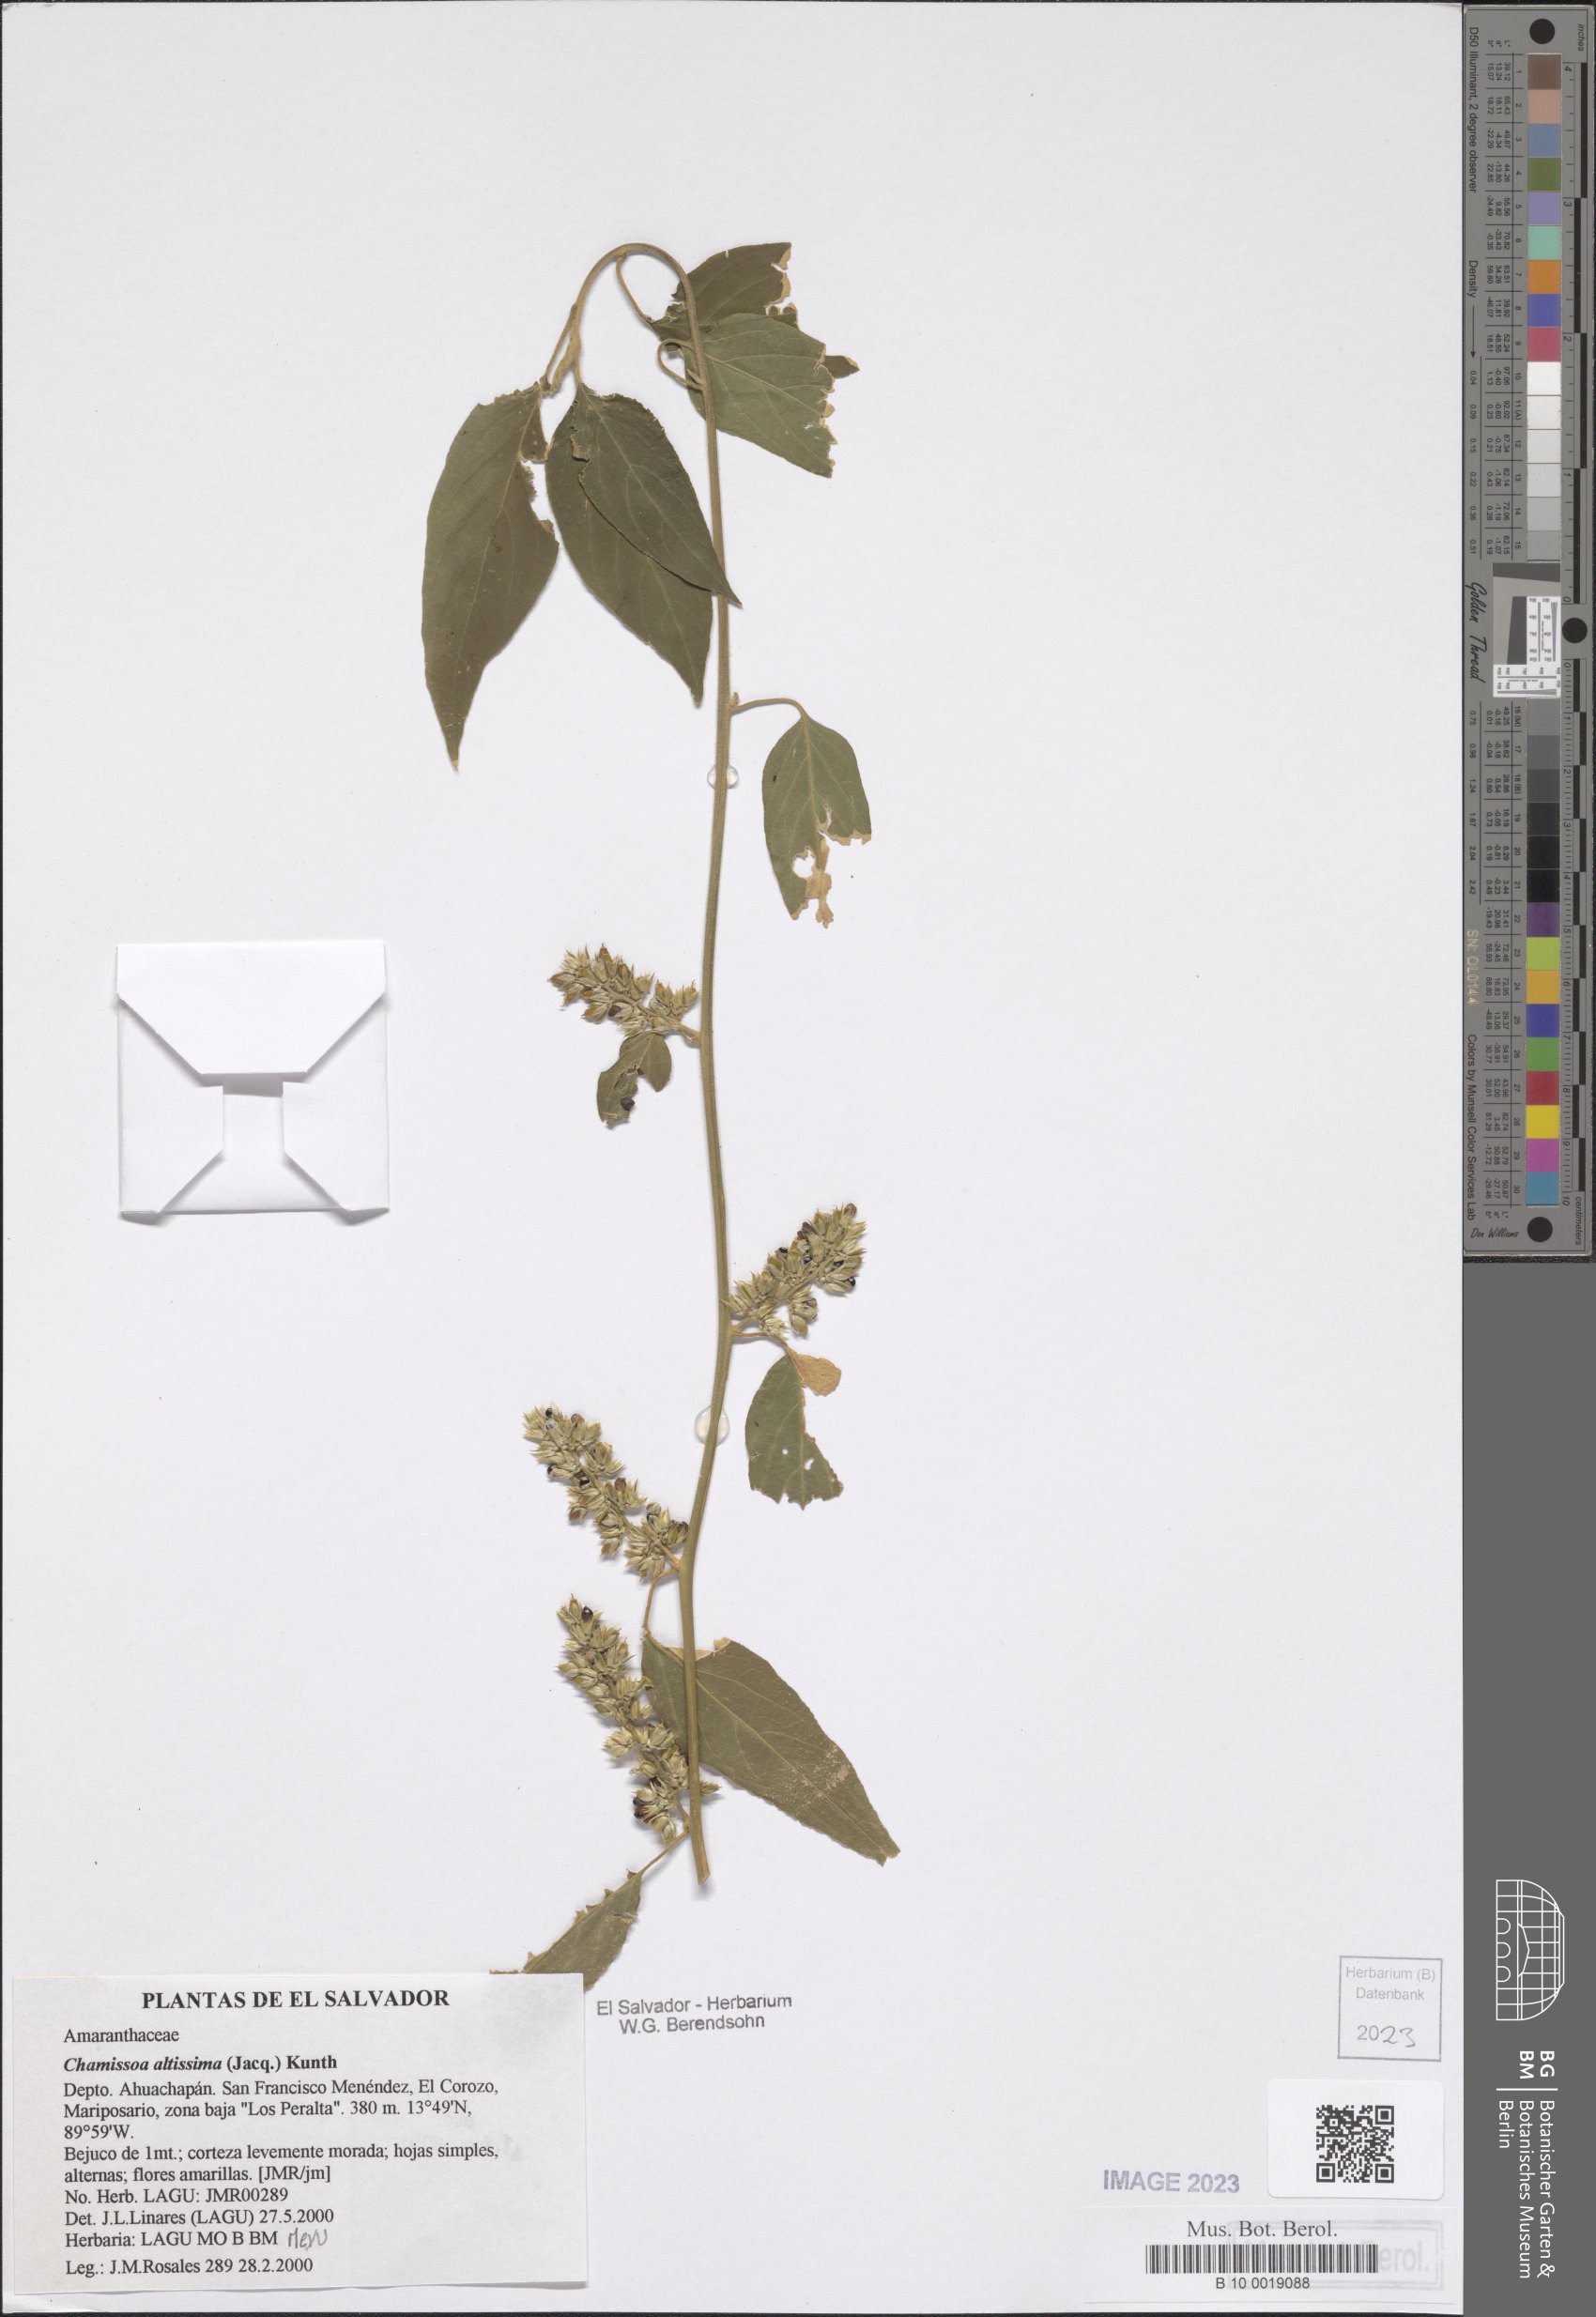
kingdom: Plantae
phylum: Tracheophyta
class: Magnoliopsida
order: Caryophyllales
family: Amaranthaceae
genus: Chamissoa
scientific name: Chamissoa altissima
